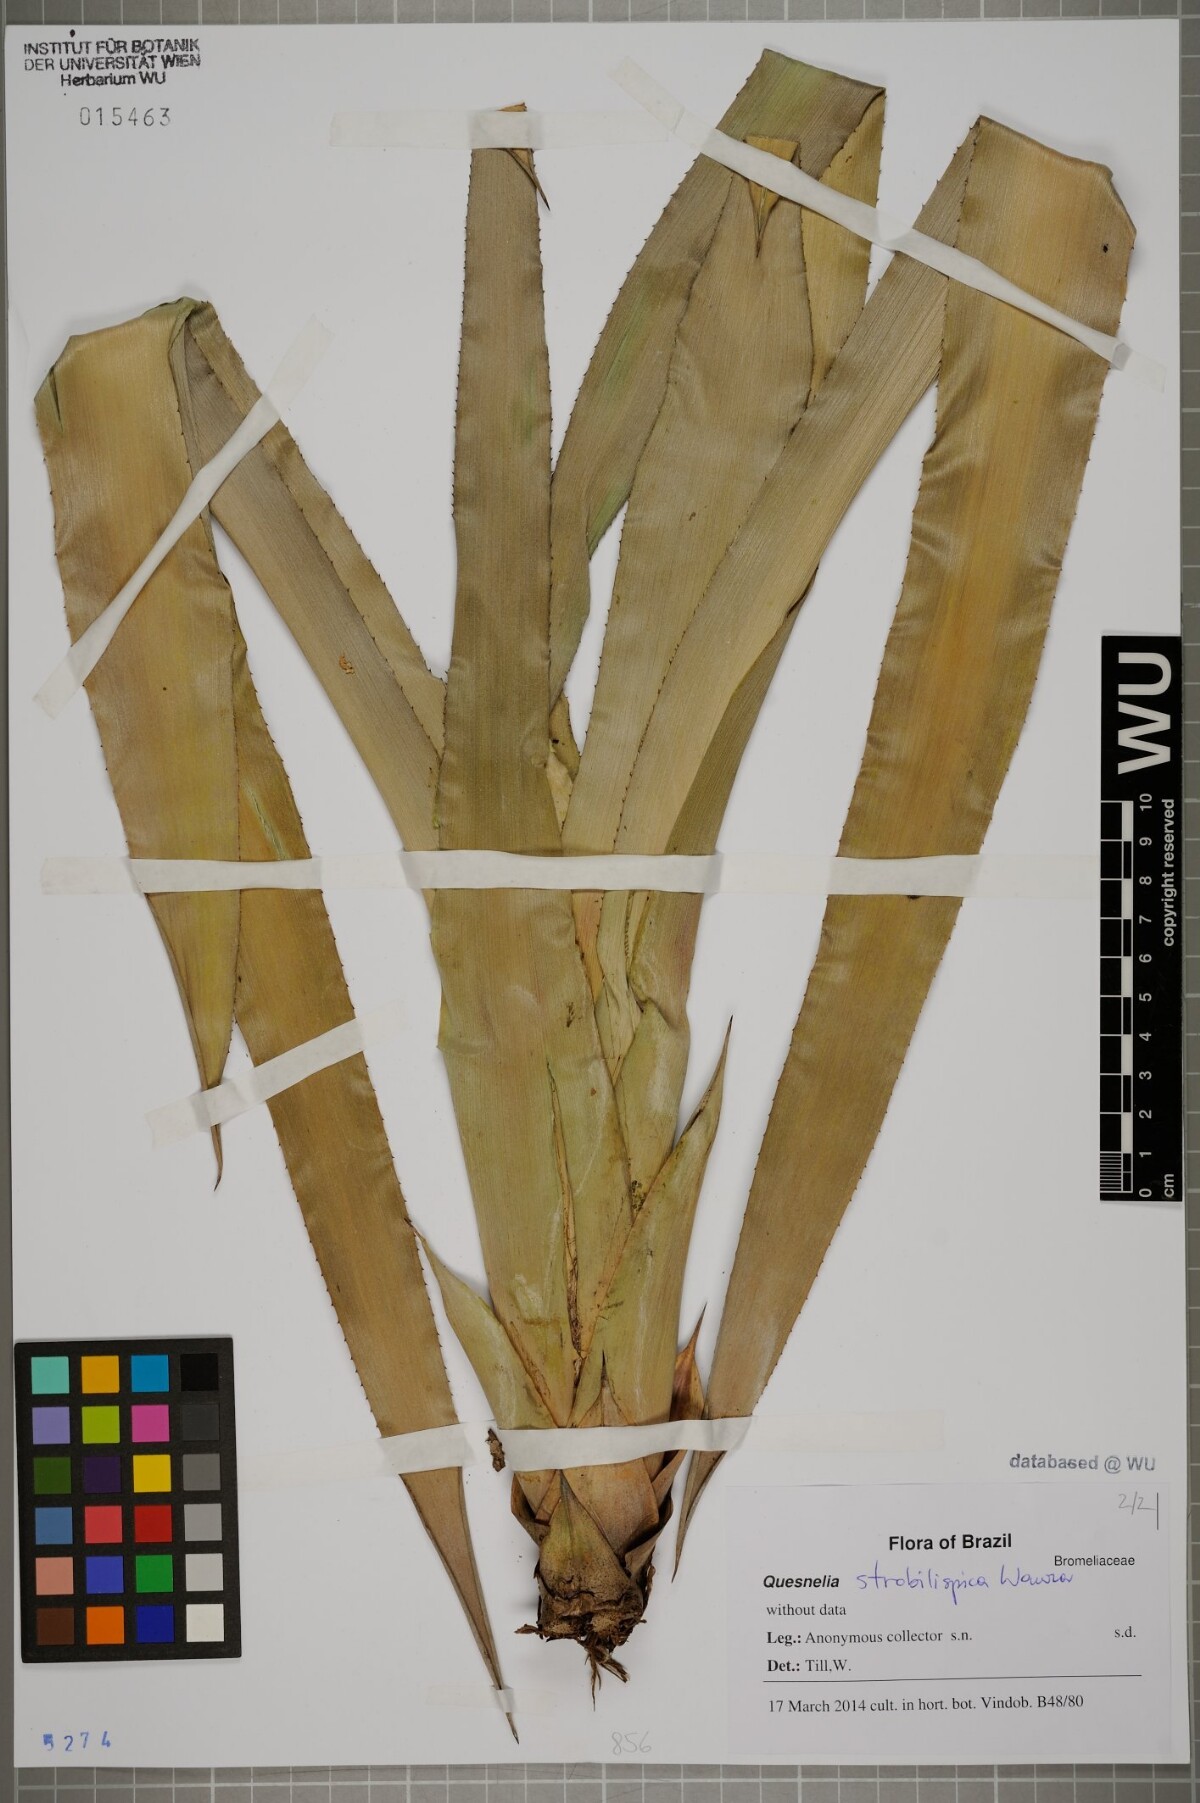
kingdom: Plantae
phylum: Tracheophyta
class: Liliopsida
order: Poales
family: Bromeliaceae
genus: Quesnelia
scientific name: Quesnelia strobilispica
